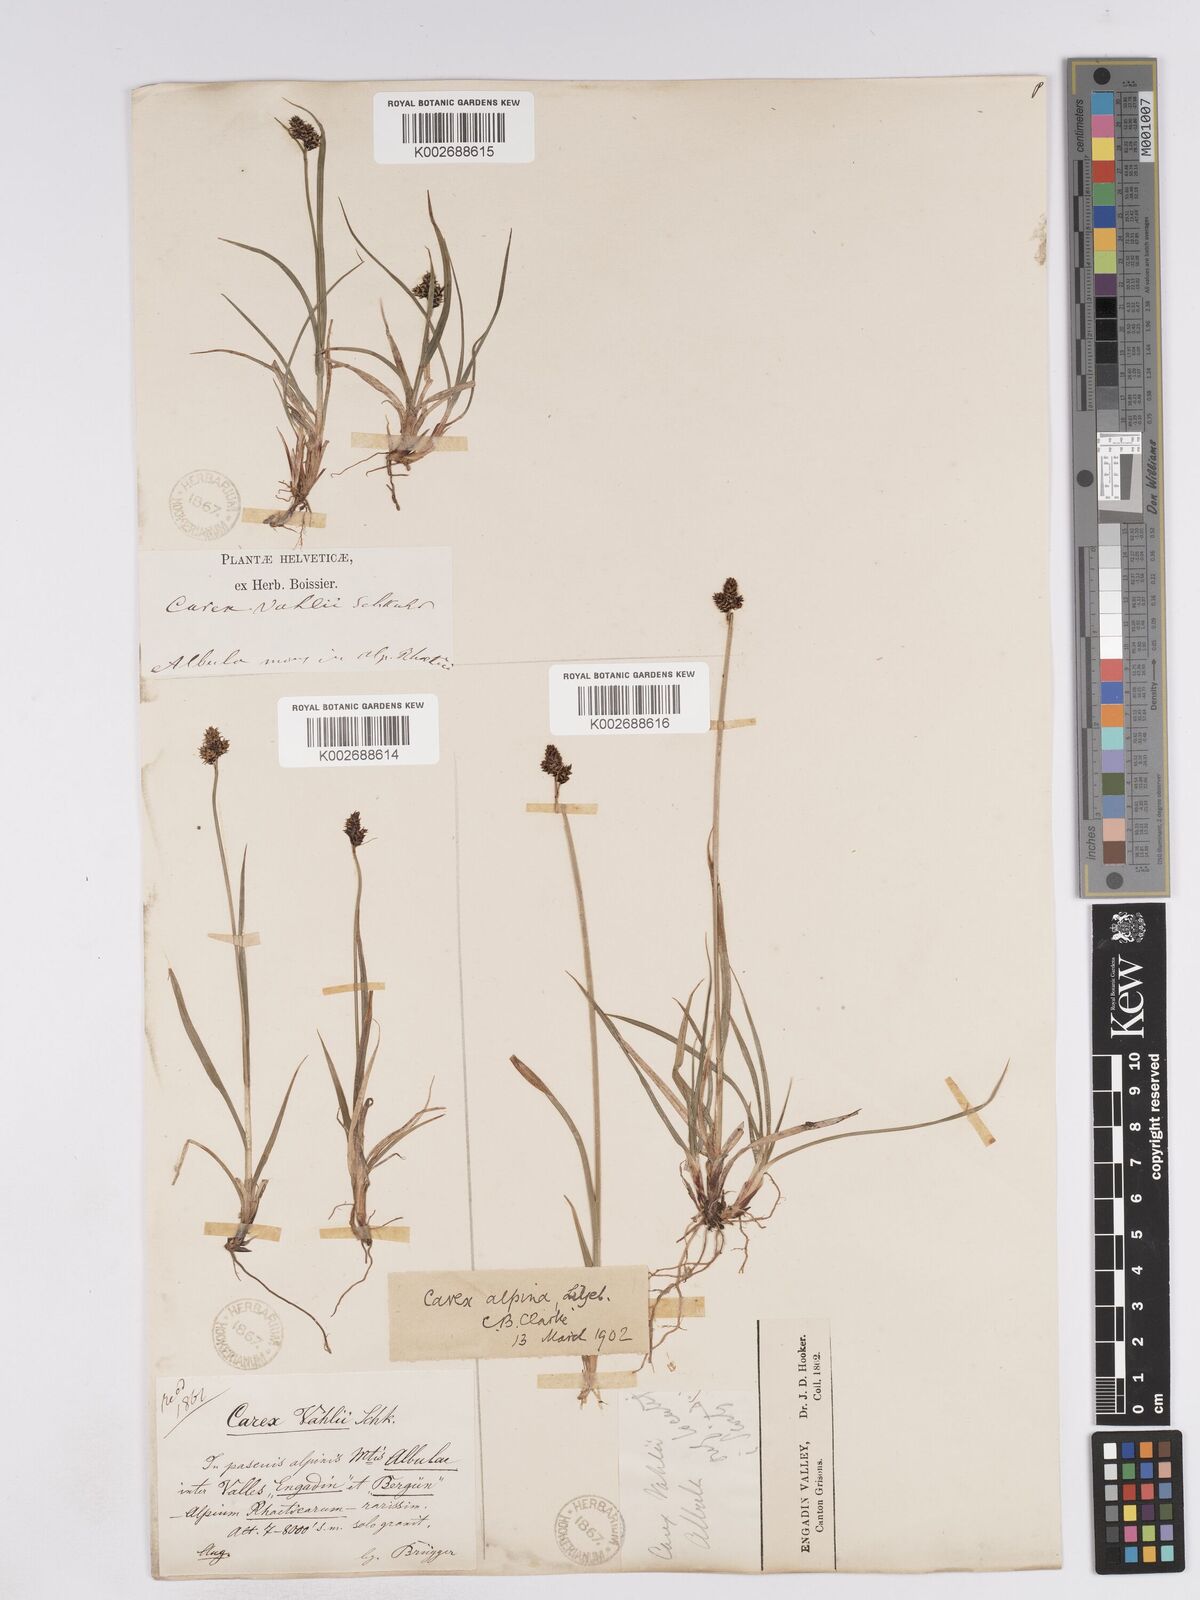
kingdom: Plantae
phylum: Tracheophyta
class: Liliopsida
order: Poales
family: Cyperaceae
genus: Carex
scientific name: Carex norvegica
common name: Close-headed alpine-sedge
